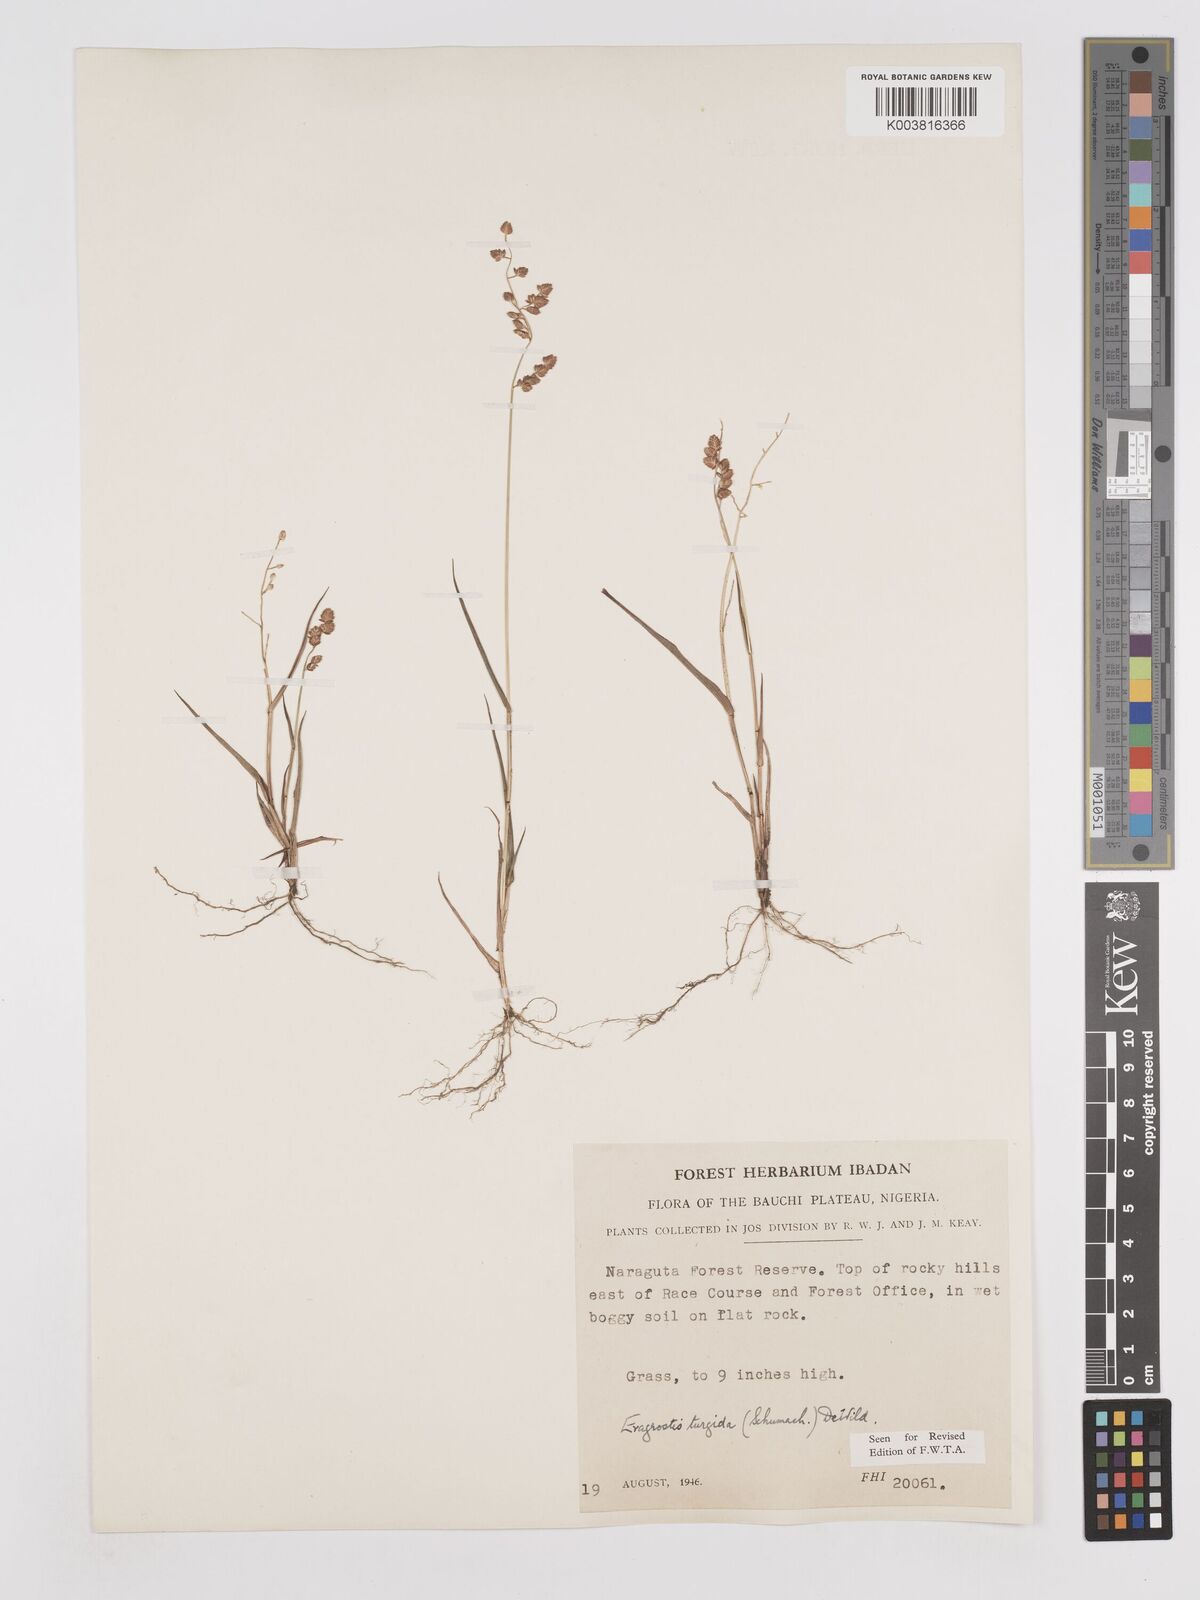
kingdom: Plantae
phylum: Tracheophyta
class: Liliopsida
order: Poales
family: Poaceae
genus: Eragrostis
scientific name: Eragrostis turgida
